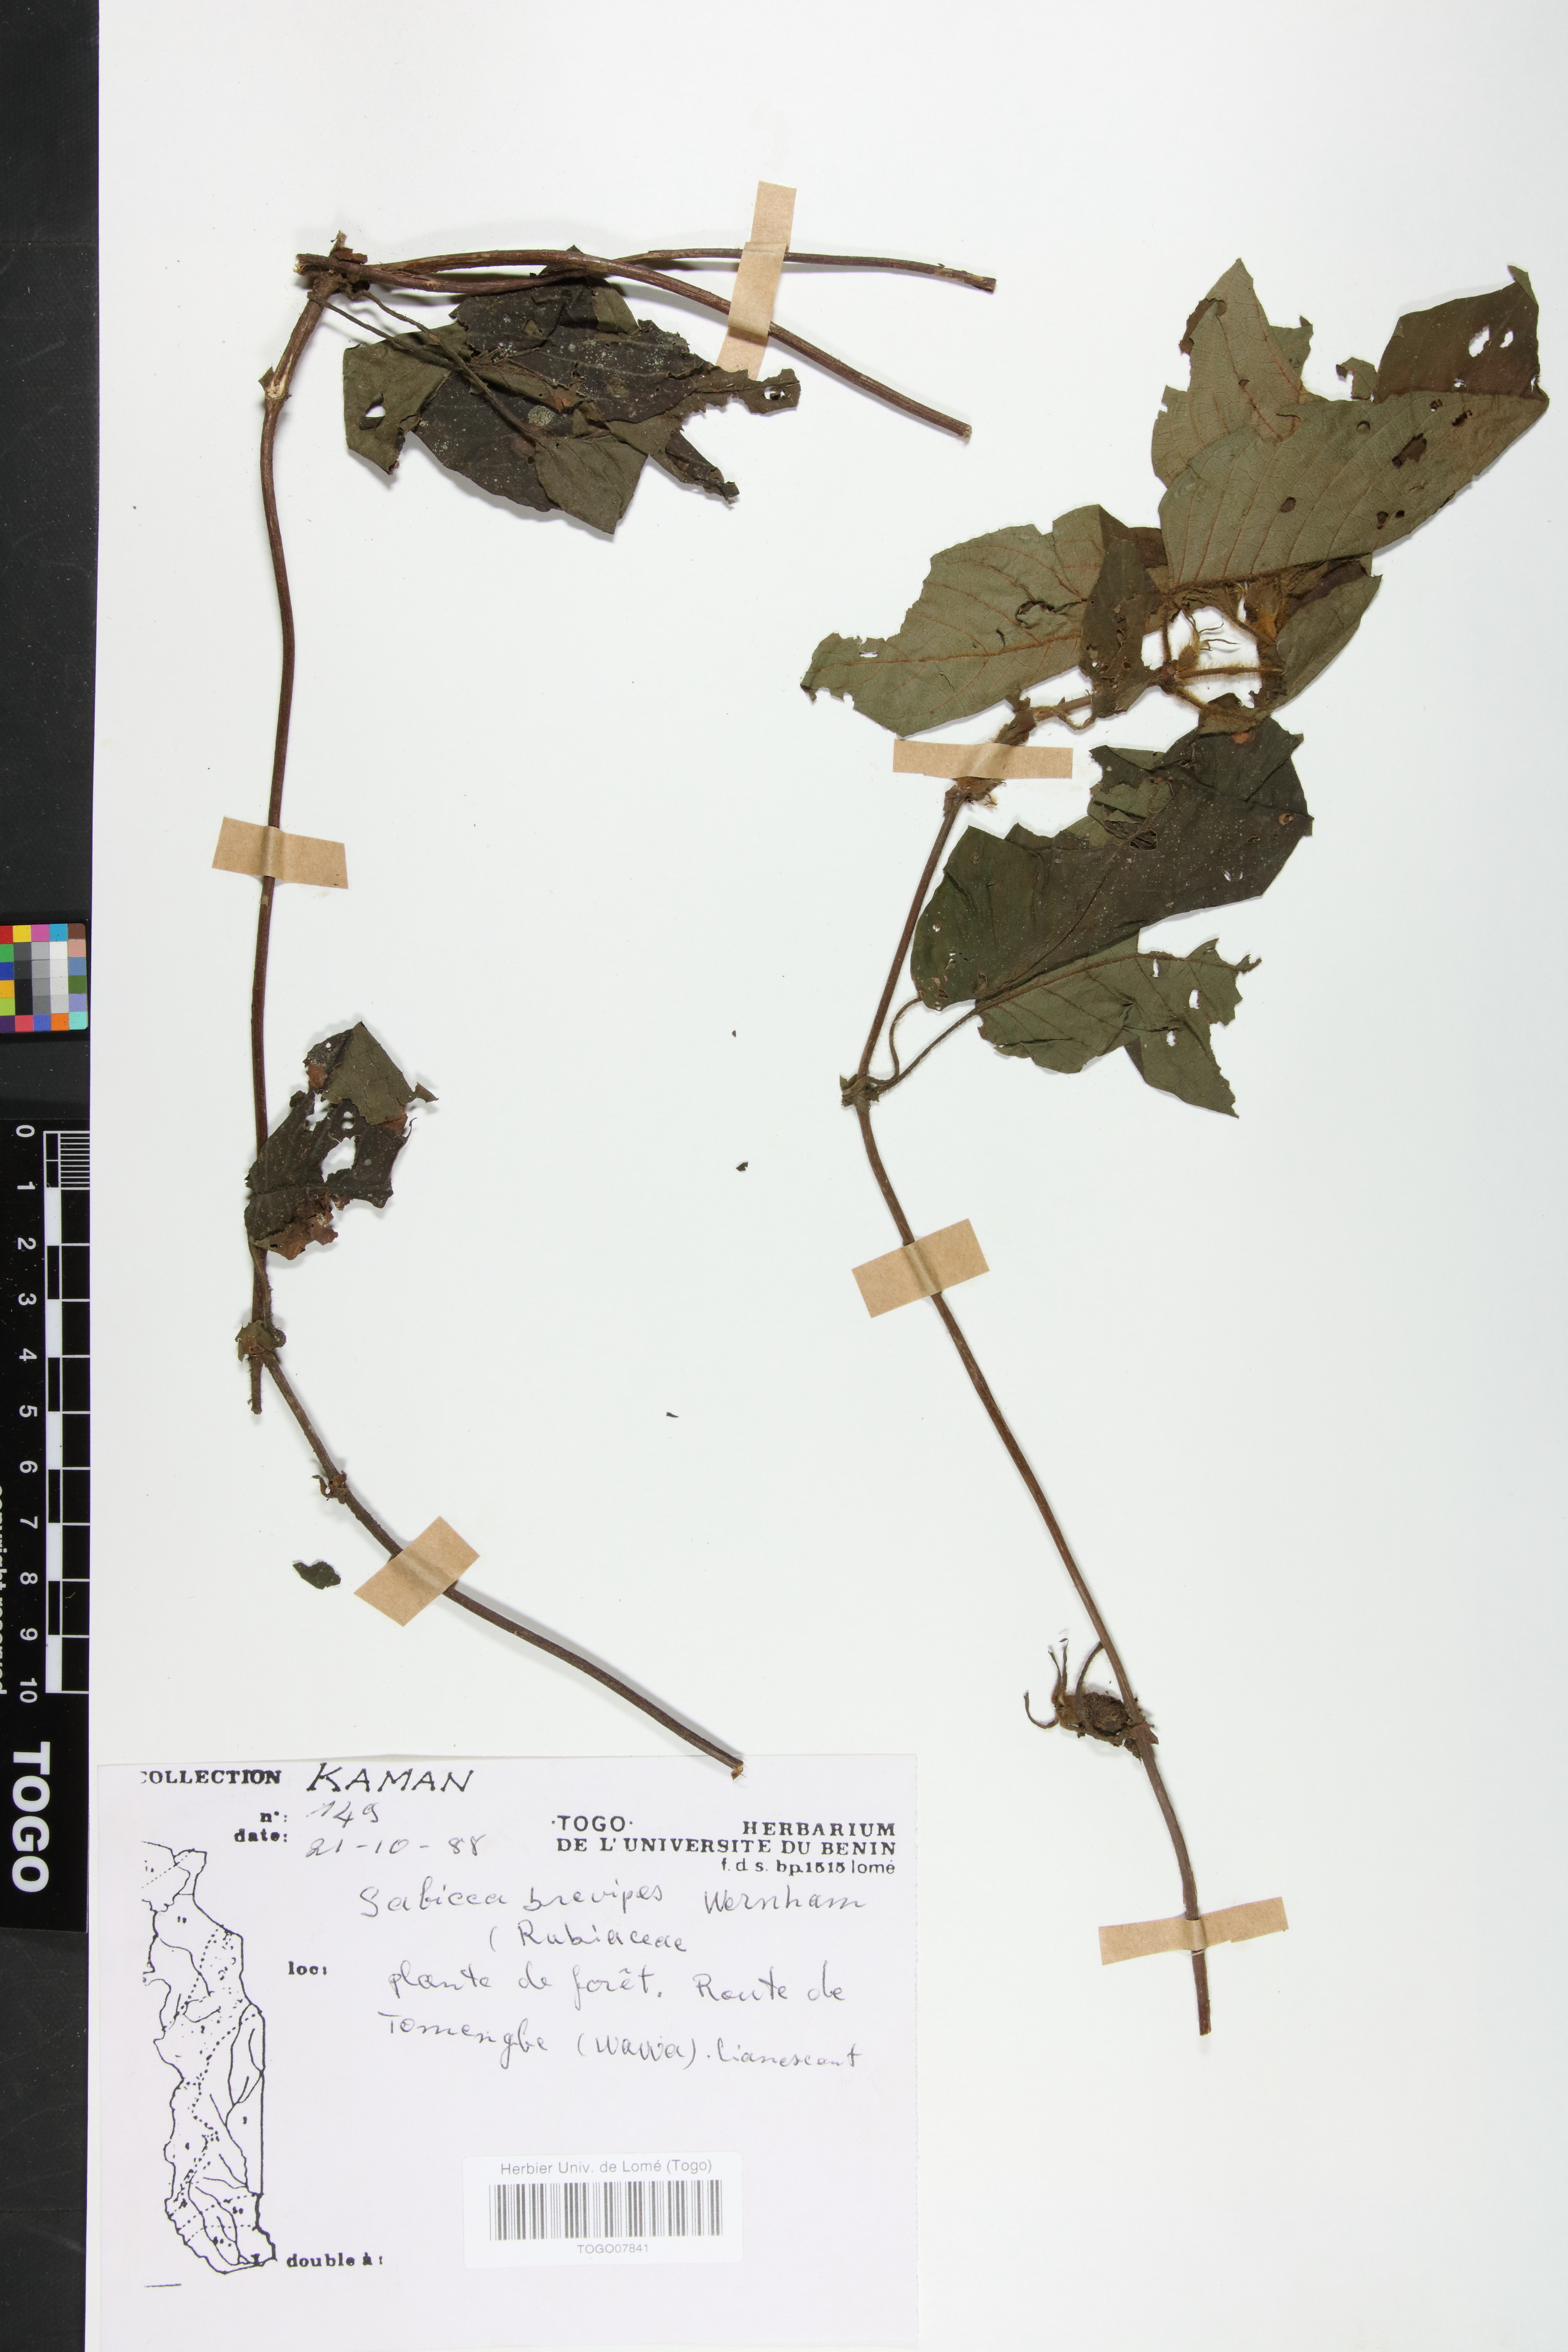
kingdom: Plantae
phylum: Tracheophyta
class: Magnoliopsida
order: Gentianales
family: Rubiaceae
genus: Sabicea
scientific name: Sabicea brevipes
